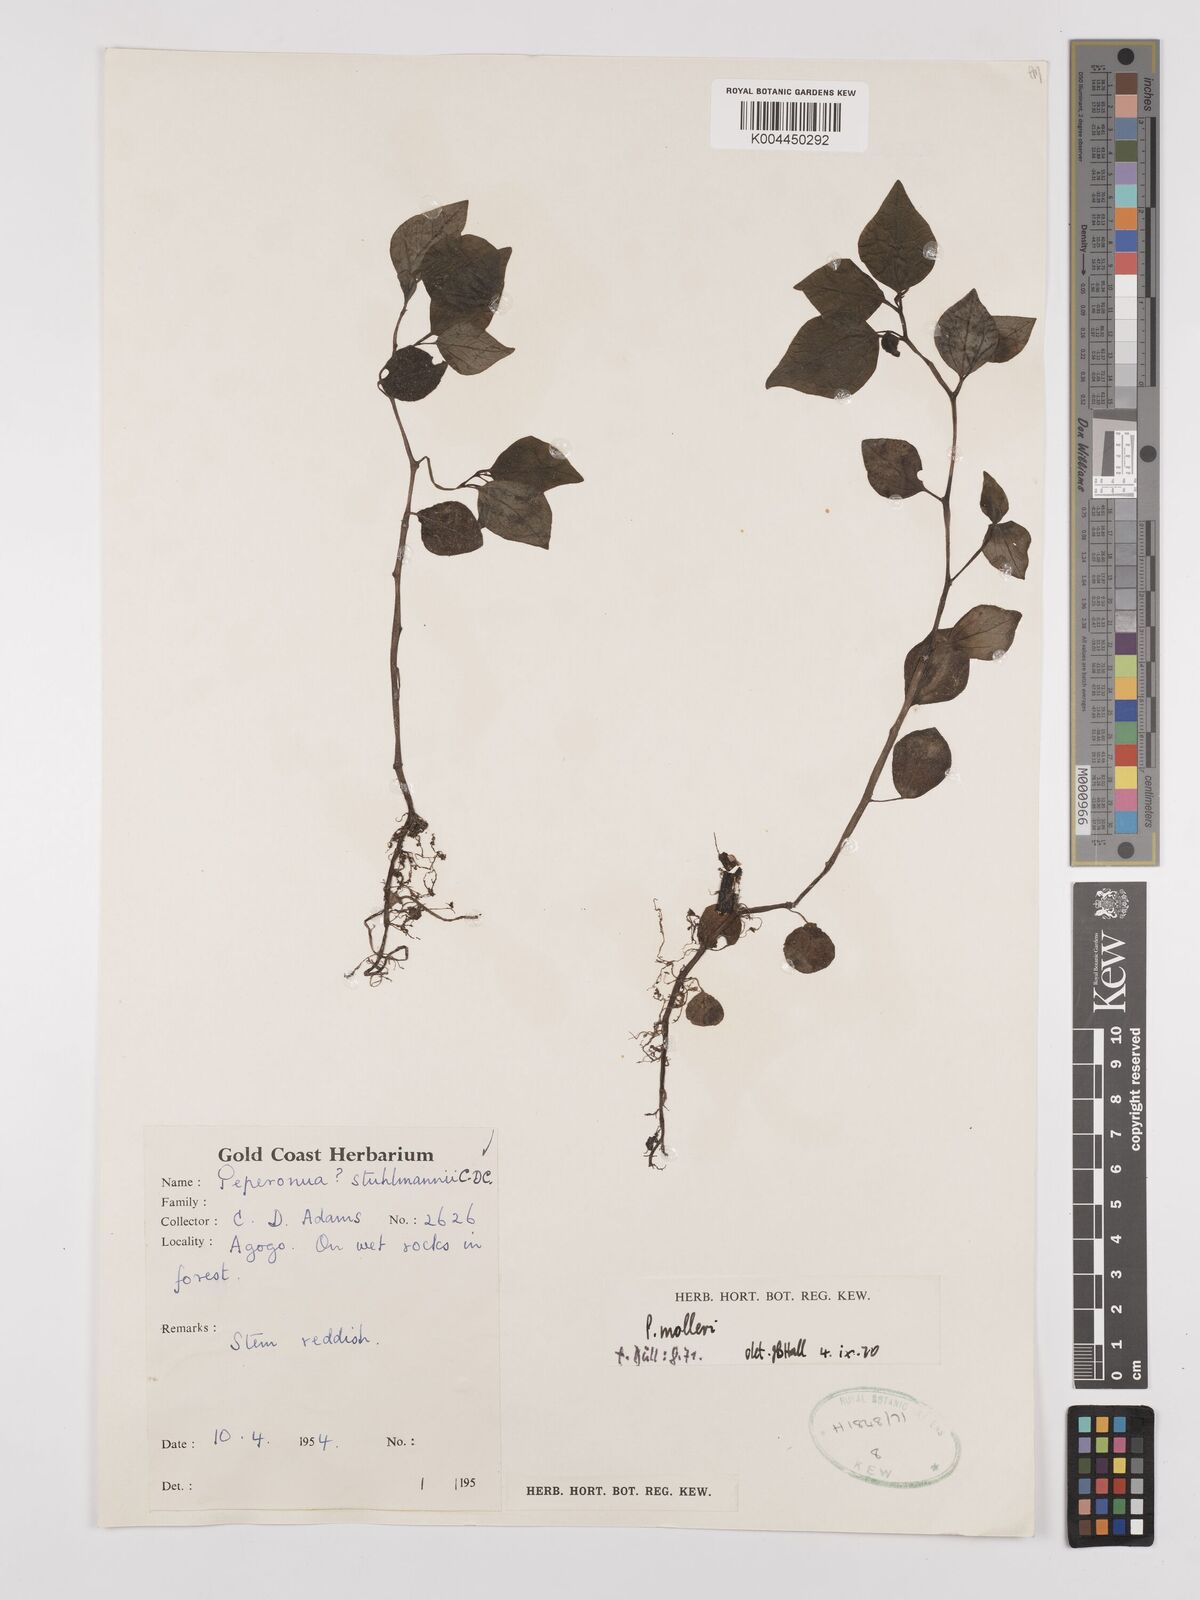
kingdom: Plantae
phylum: Tracheophyta
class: Magnoliopsida
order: Piperales
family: Piperaceae
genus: Peperomia
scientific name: Peperomia molleri
